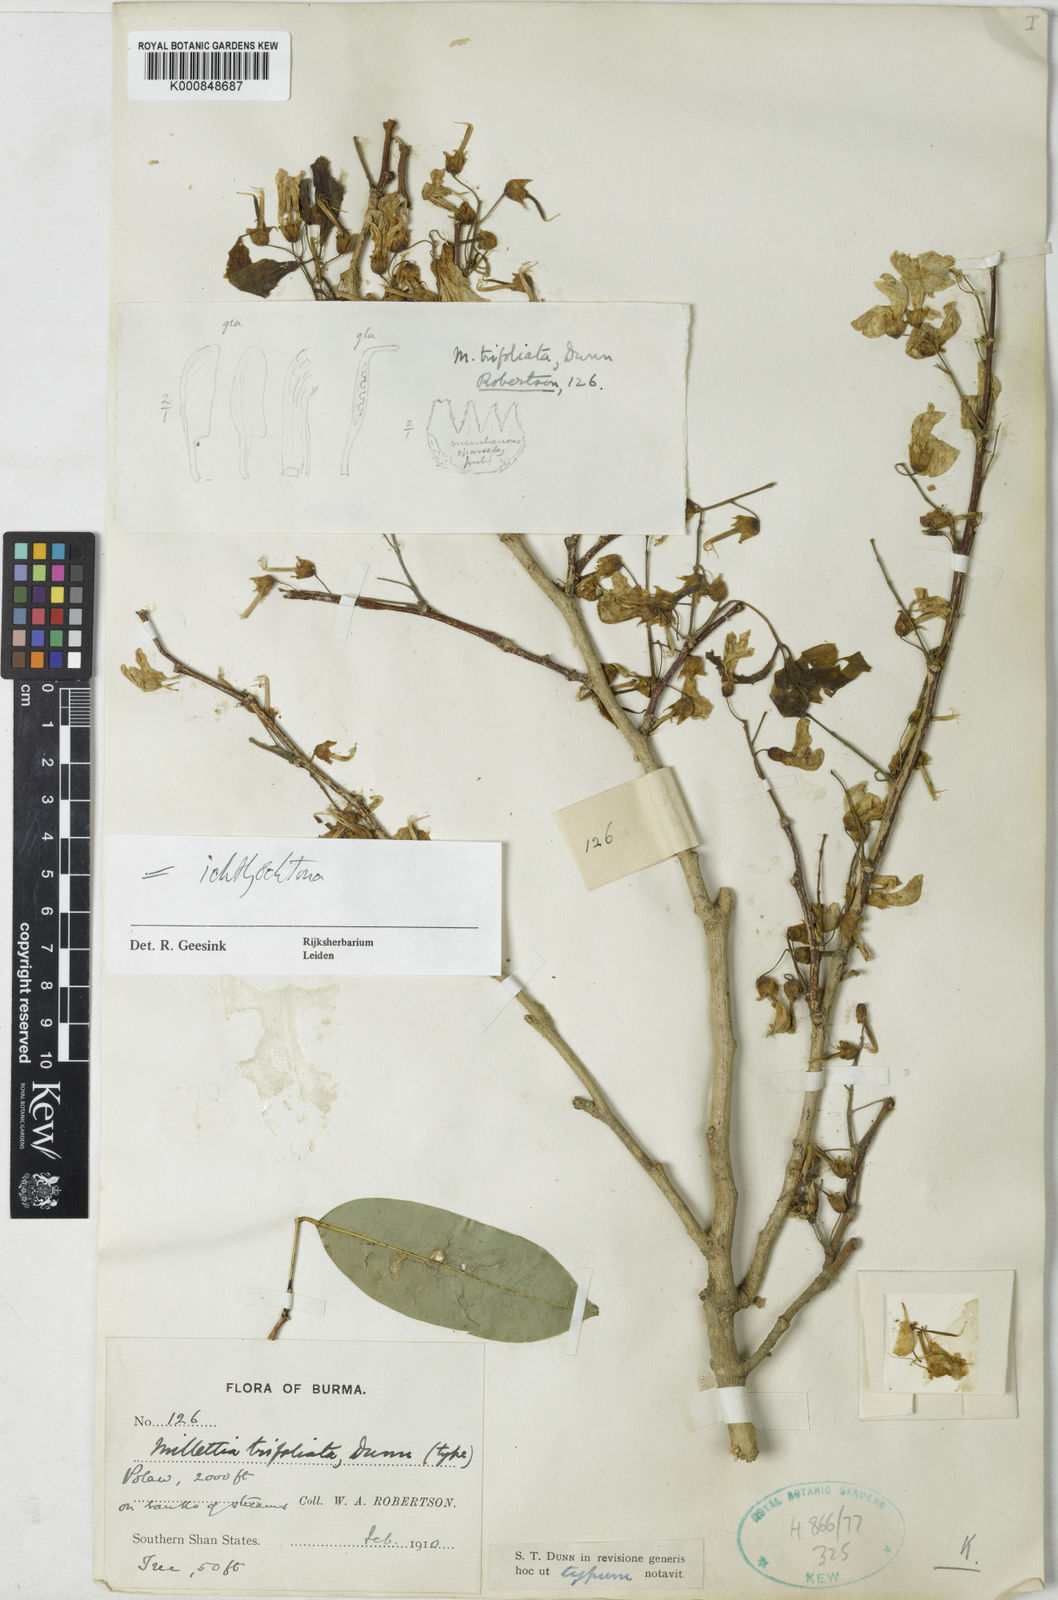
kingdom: Plantae
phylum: Tracheophyta
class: Magnoliopsida
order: Fabales
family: Fabaceae
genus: Millettia
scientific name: Millettia trifoliata
